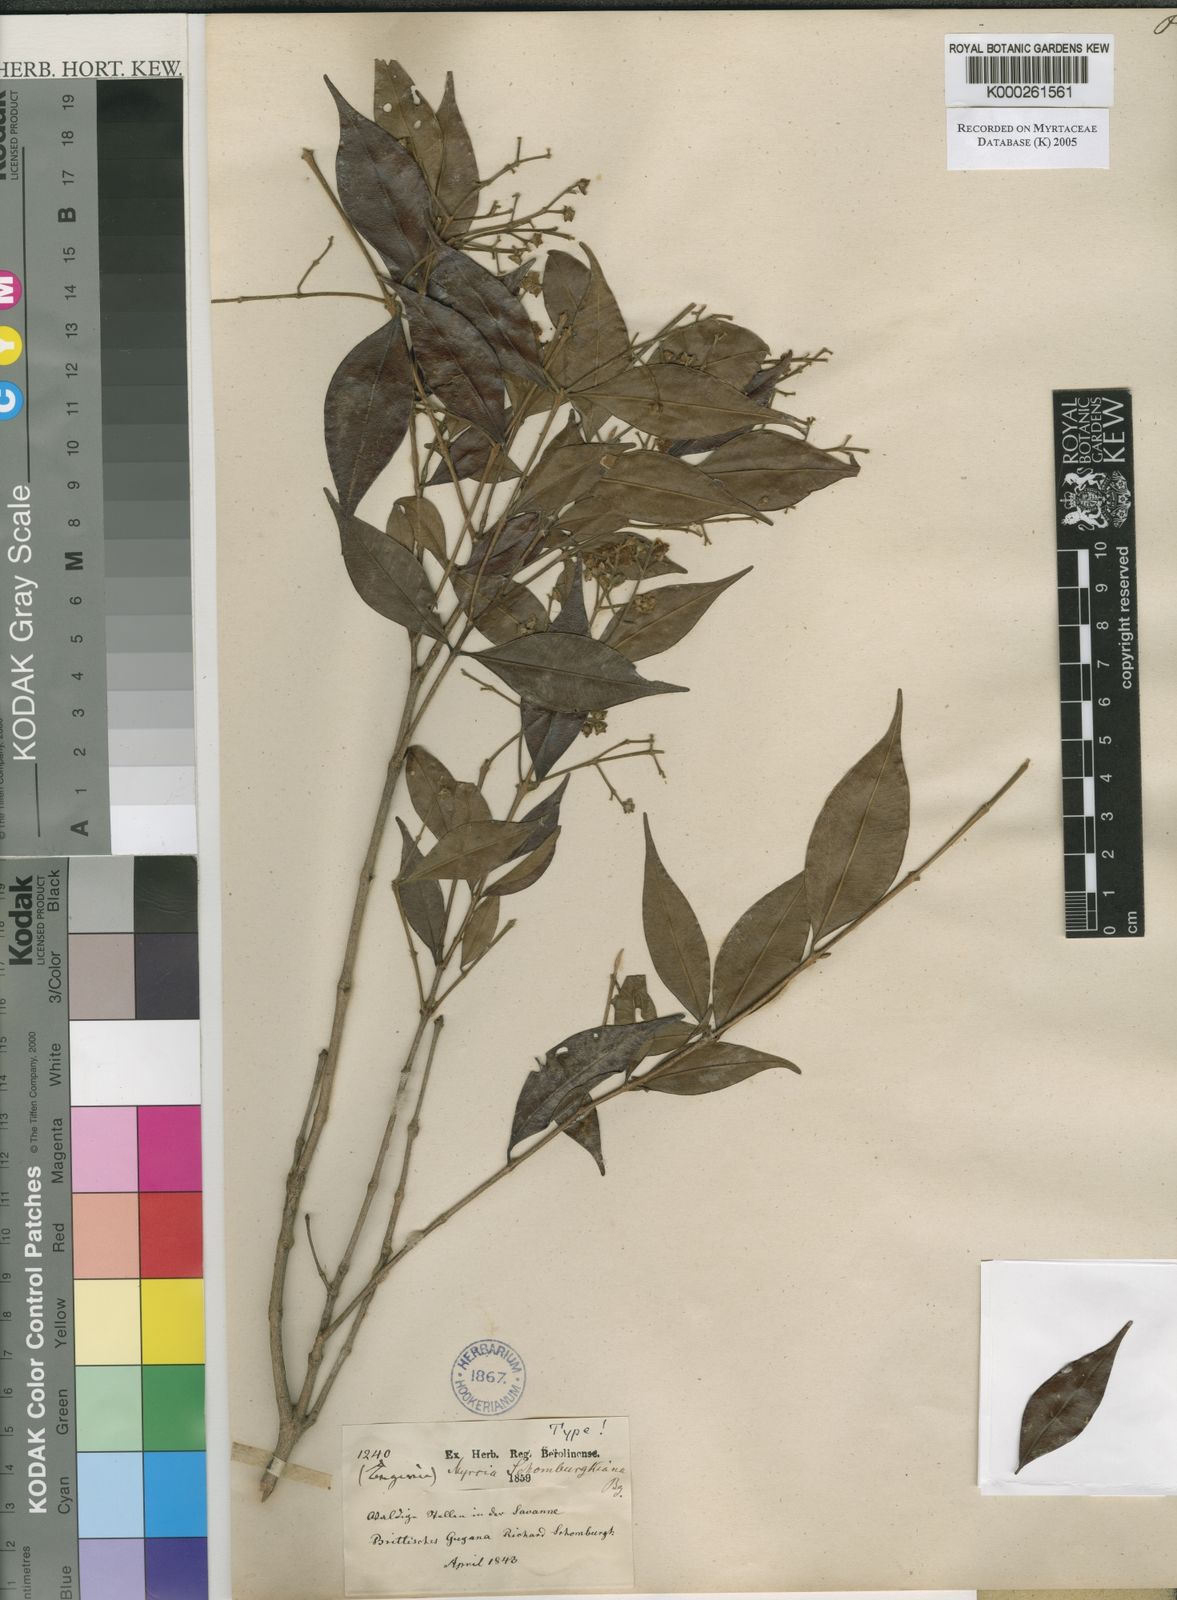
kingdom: Plantae
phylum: Tracheophyta
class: Magnoliopsida
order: Myrtales
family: Myrtaceae
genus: Myrcia
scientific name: Myrcia servata
